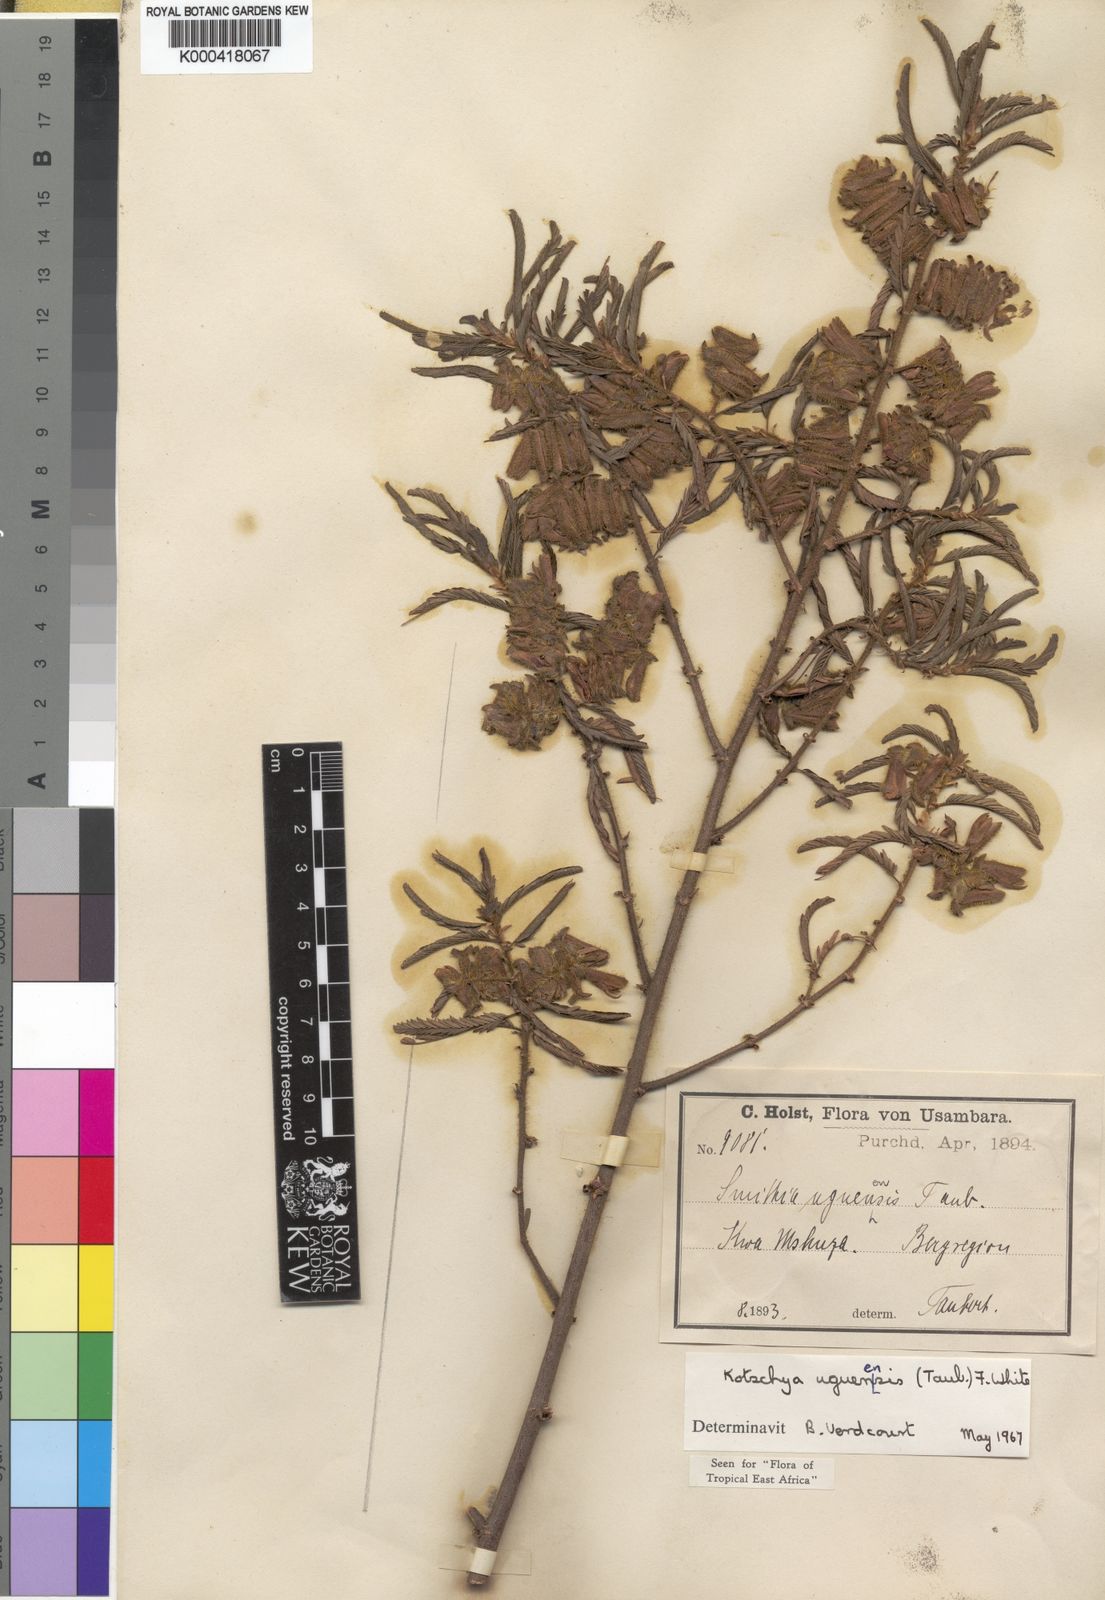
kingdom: Plantae
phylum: Tracheophyta
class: Magnoliopsida
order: Fabales
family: Fabaceae
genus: Kotschya
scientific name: Kotschya uguenensis
